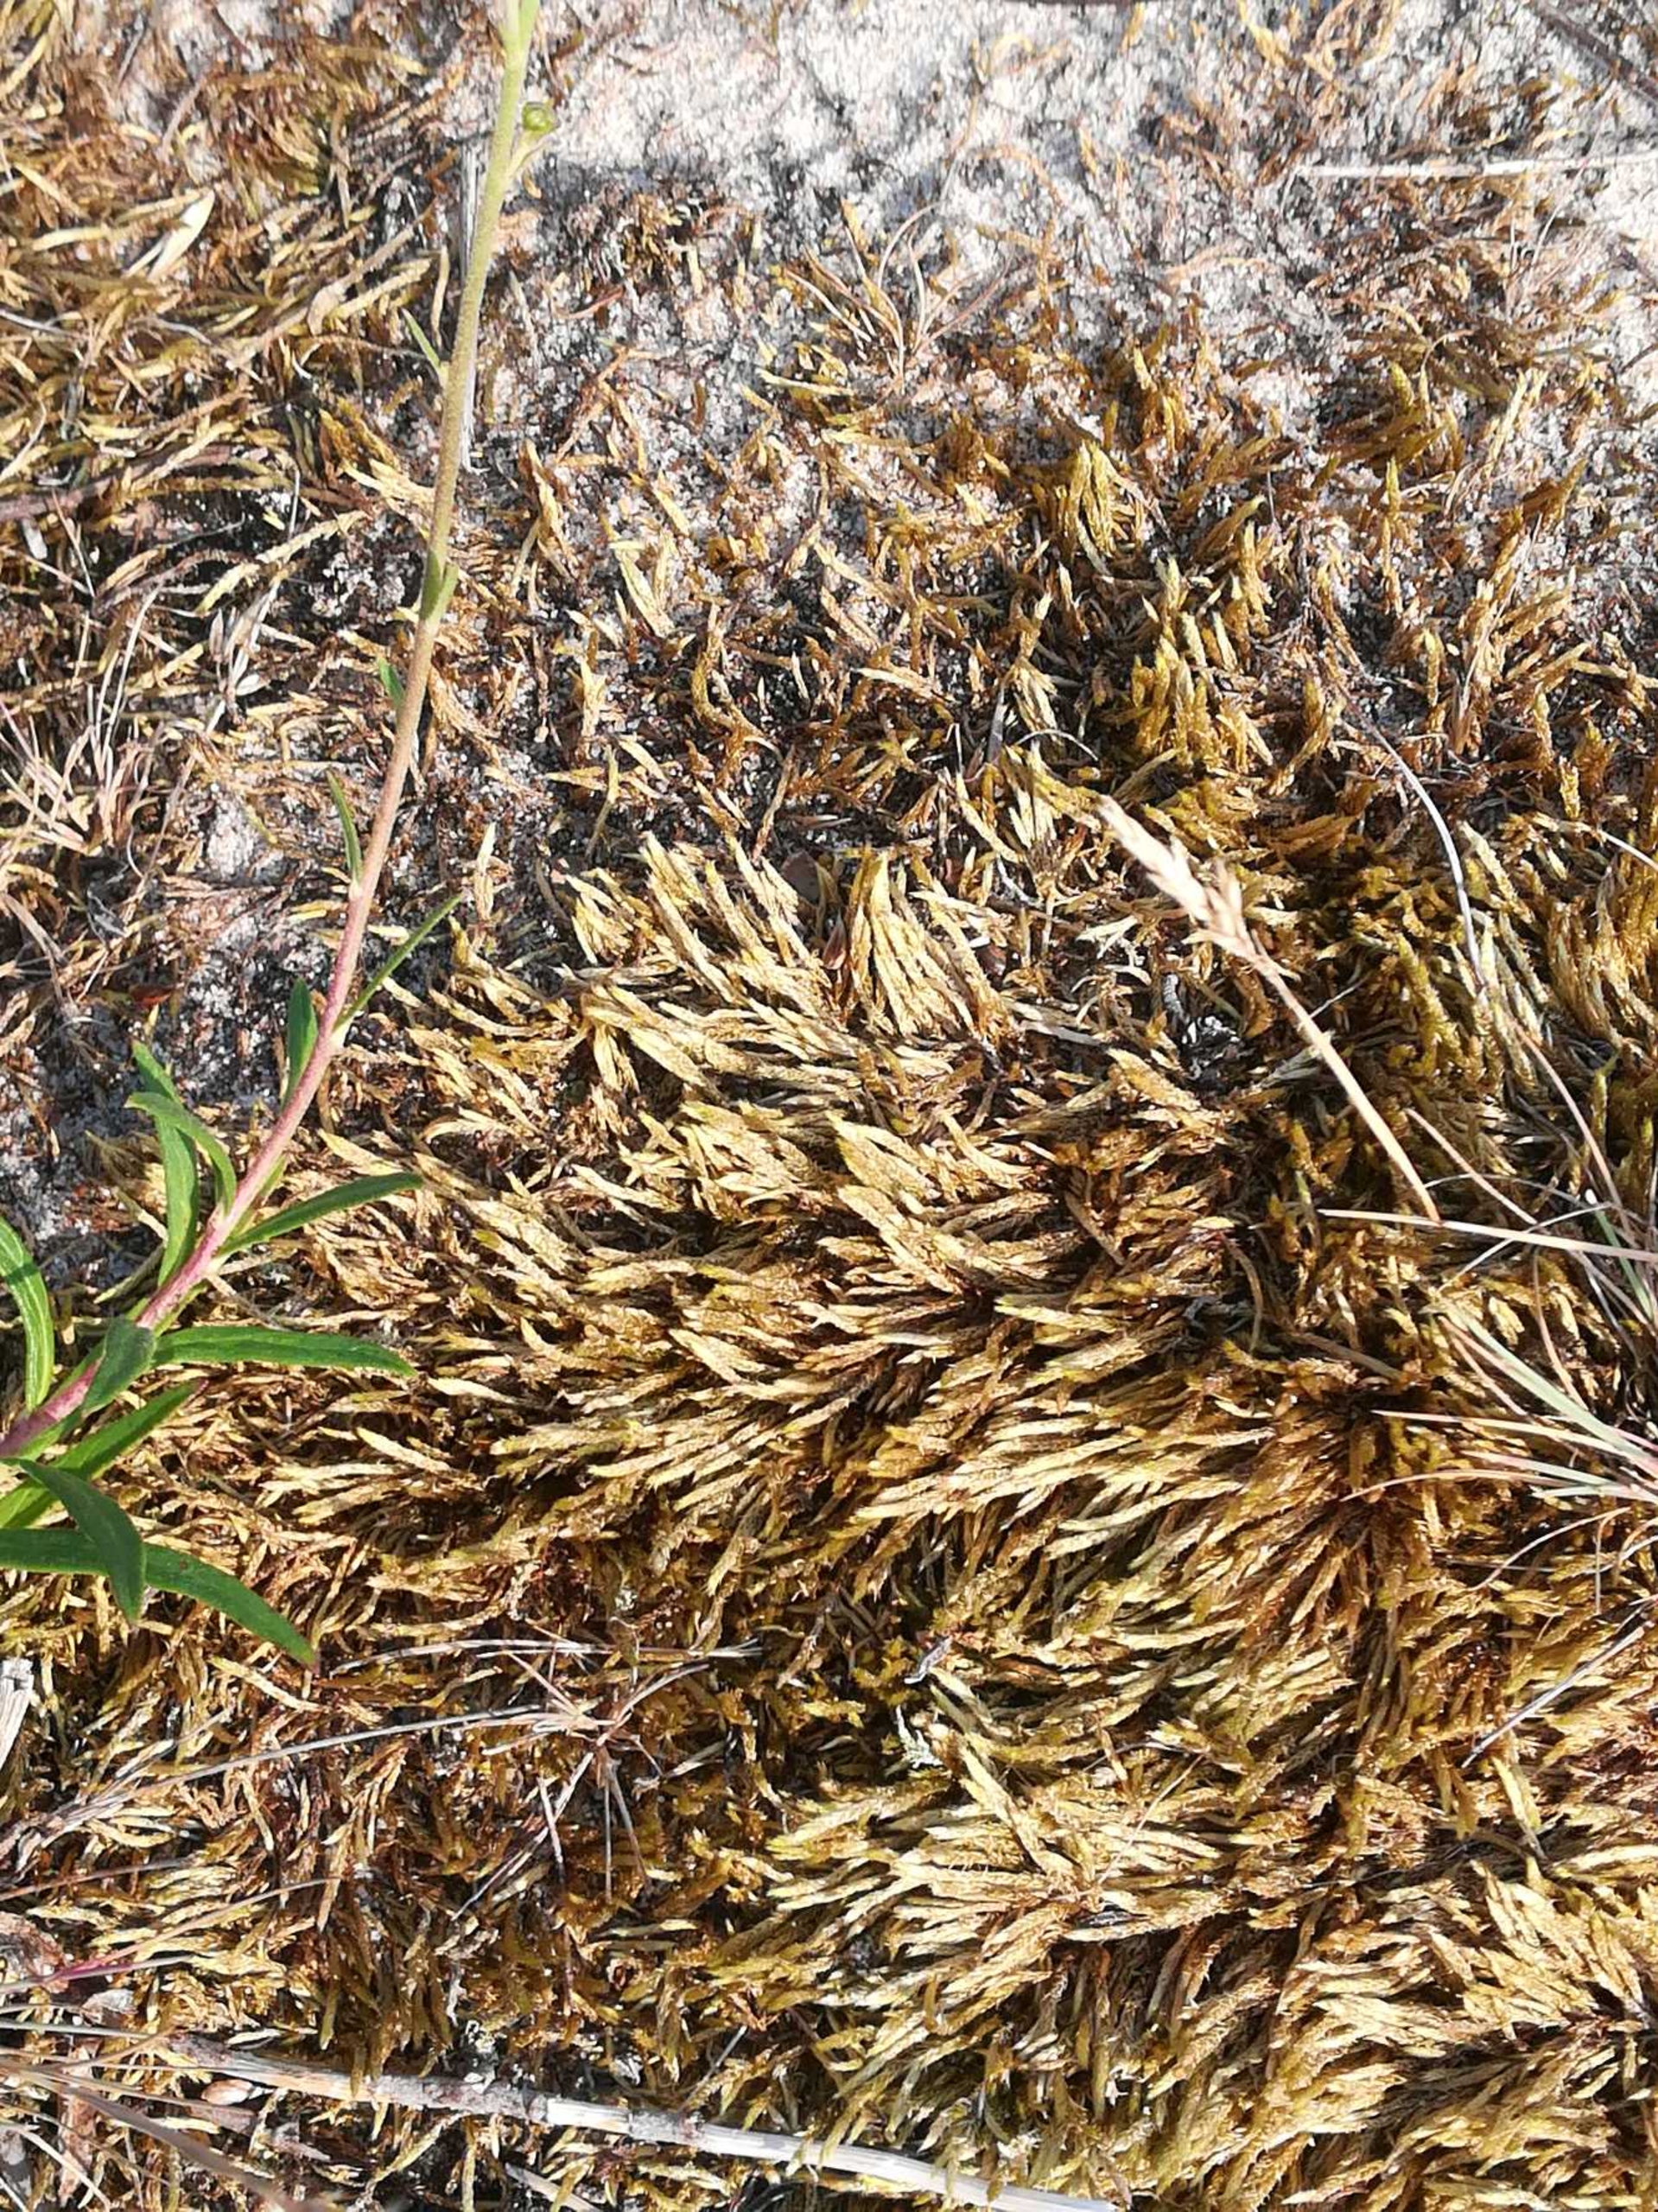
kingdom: Plantae
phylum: Bryophyta
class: Bryopsida
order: Hypnales
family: Brachytheciaceae
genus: Brachythecium
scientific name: Brachythecium albicans
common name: Hvidlig kortkapsel
